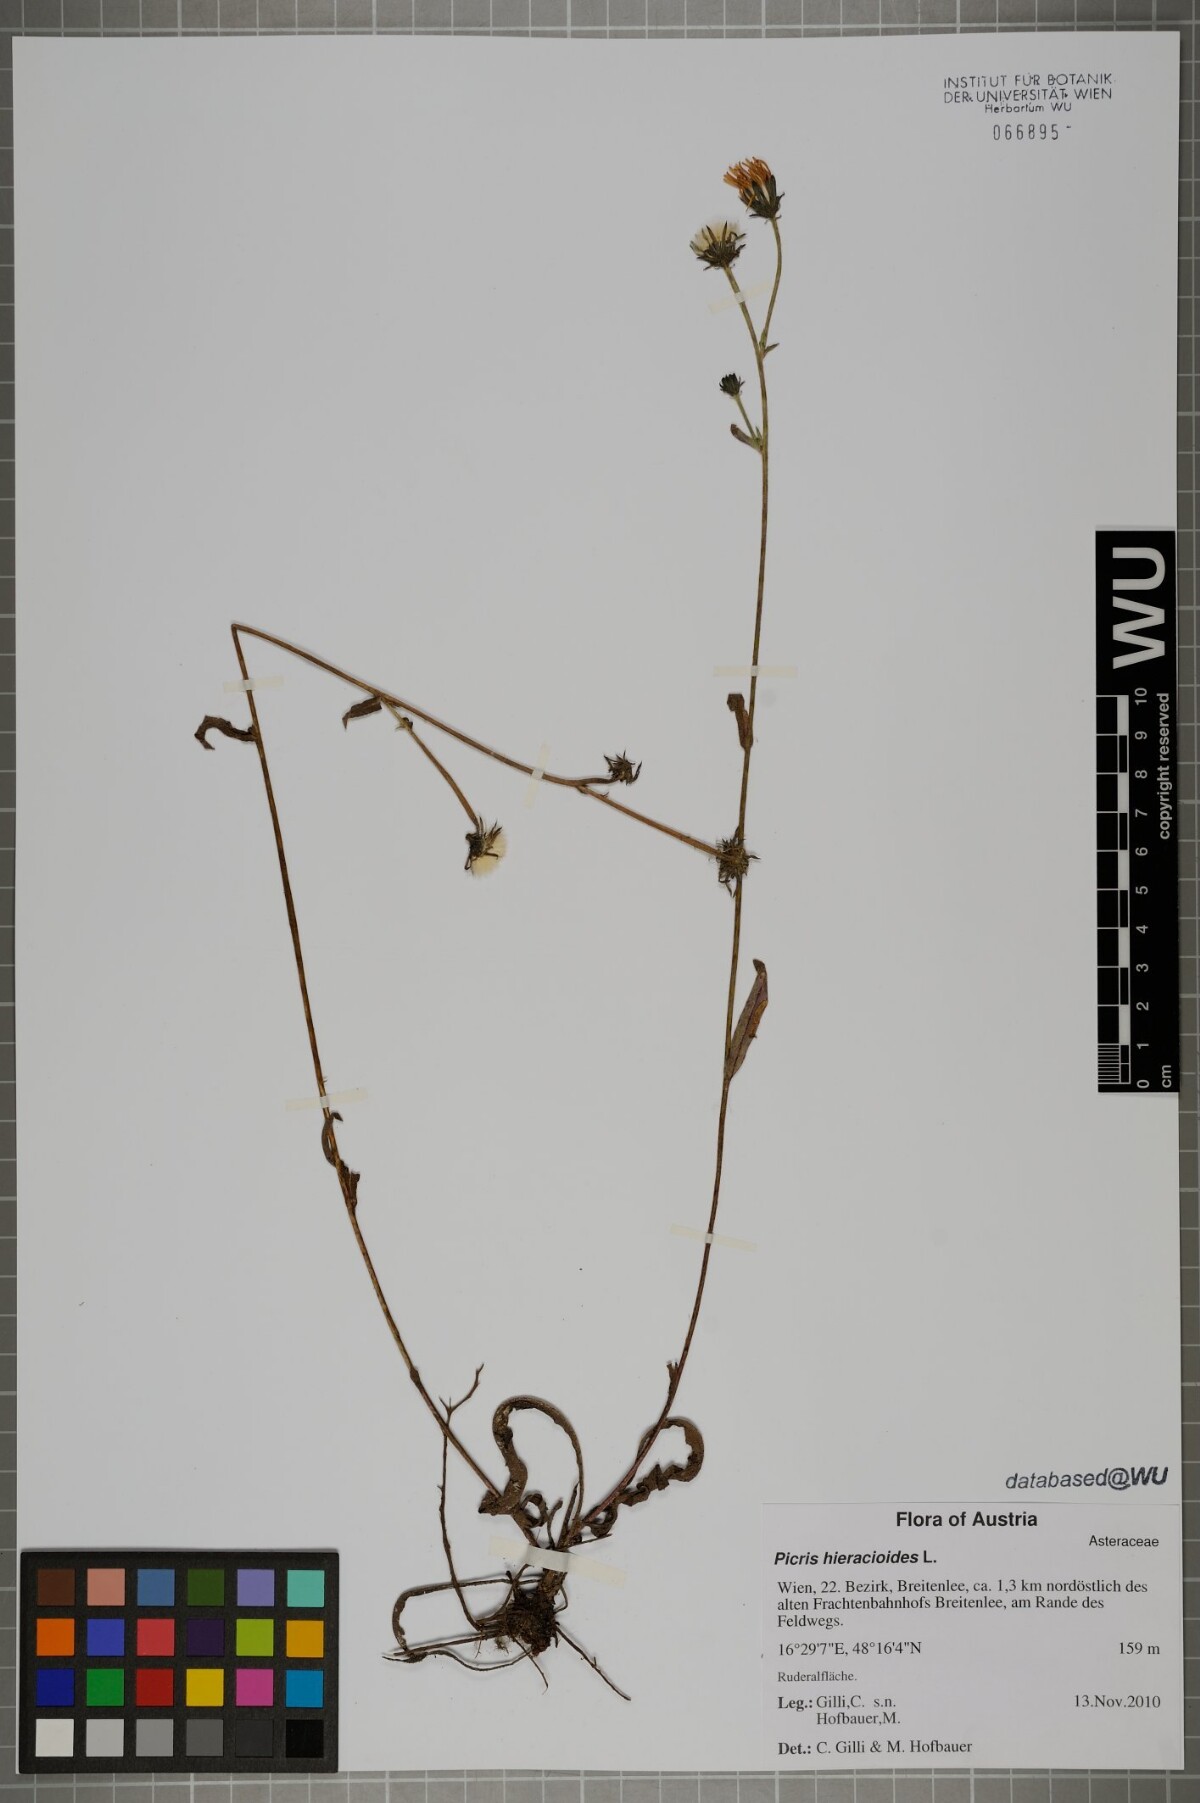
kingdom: Plantae
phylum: Tracheophyta
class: Magnoliopsida
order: Asterales
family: Asteraceae
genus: Picris
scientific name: Picris hieracioides
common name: Hawkweed oxtongue
